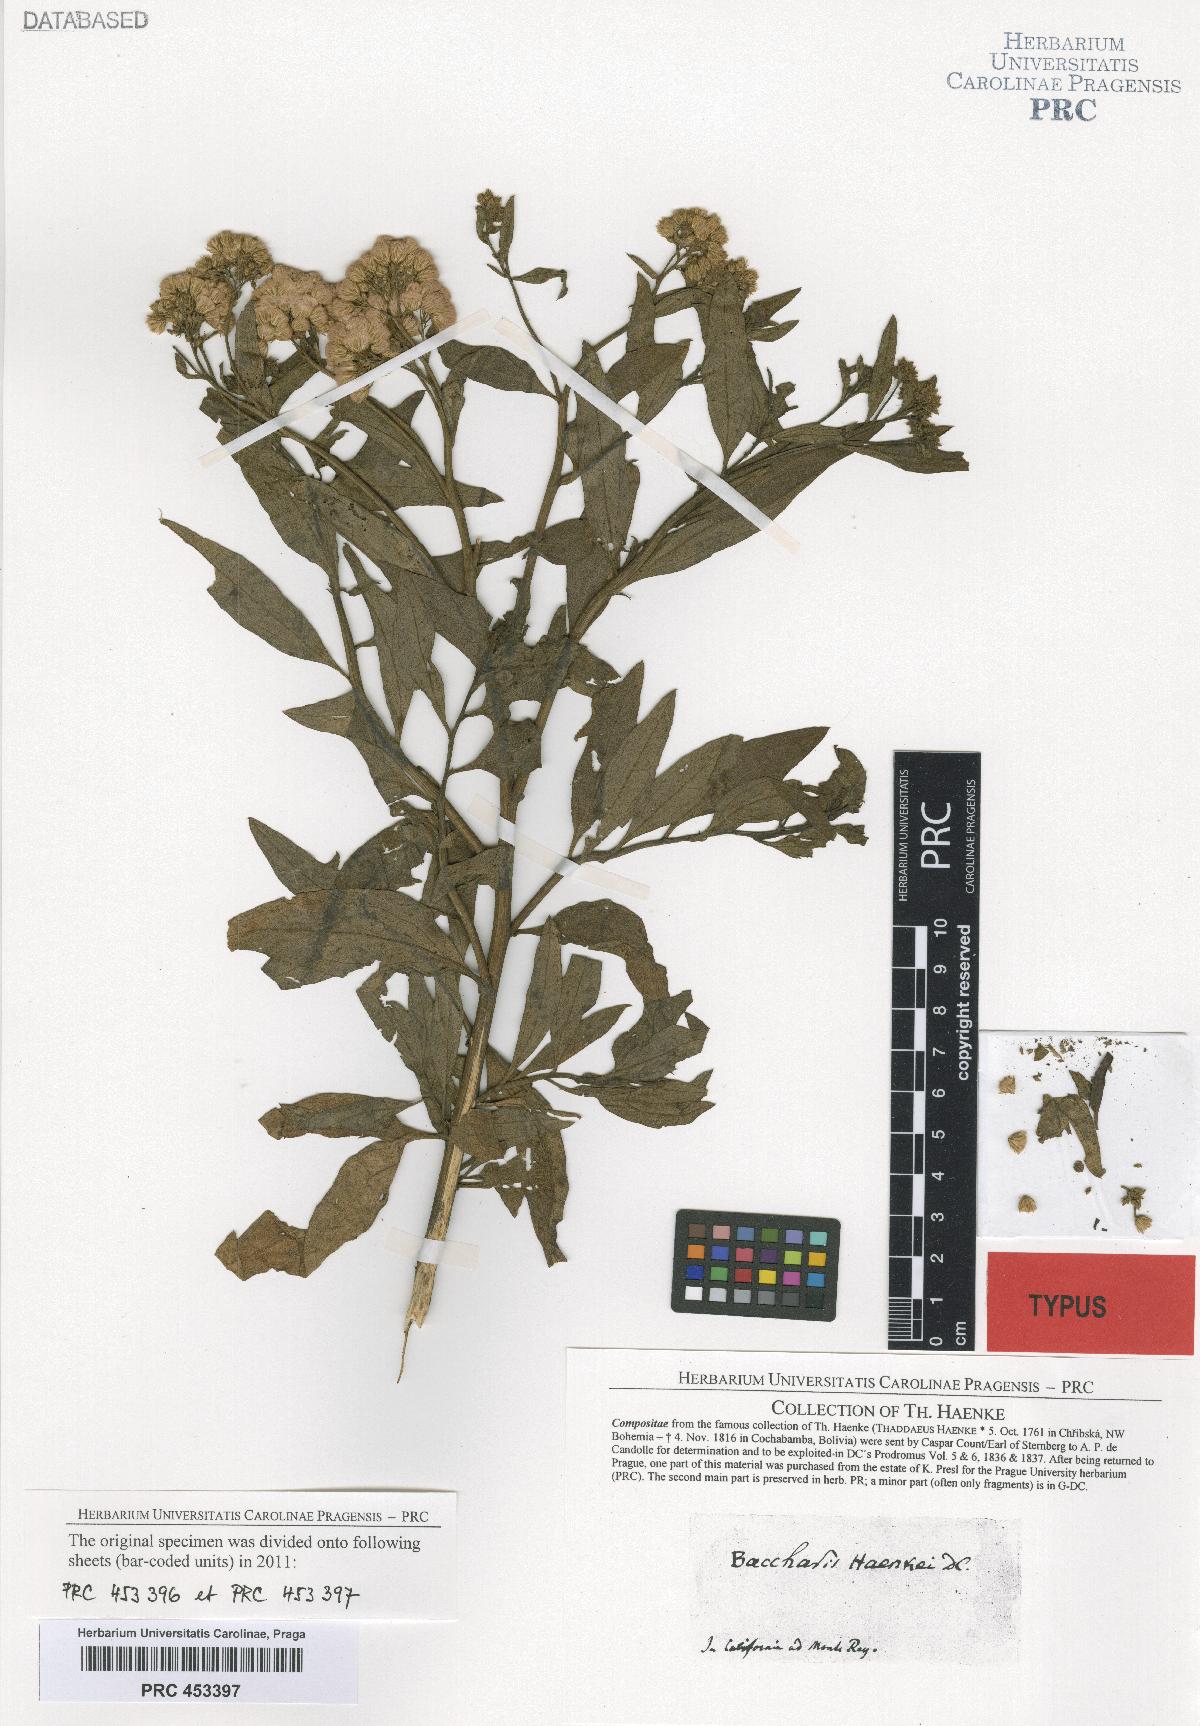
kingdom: Plantae
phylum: Tracheophyta
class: Magnoliopsida
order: Asterales
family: Asteraceae
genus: Baccharis
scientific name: Baccharis douglasii
